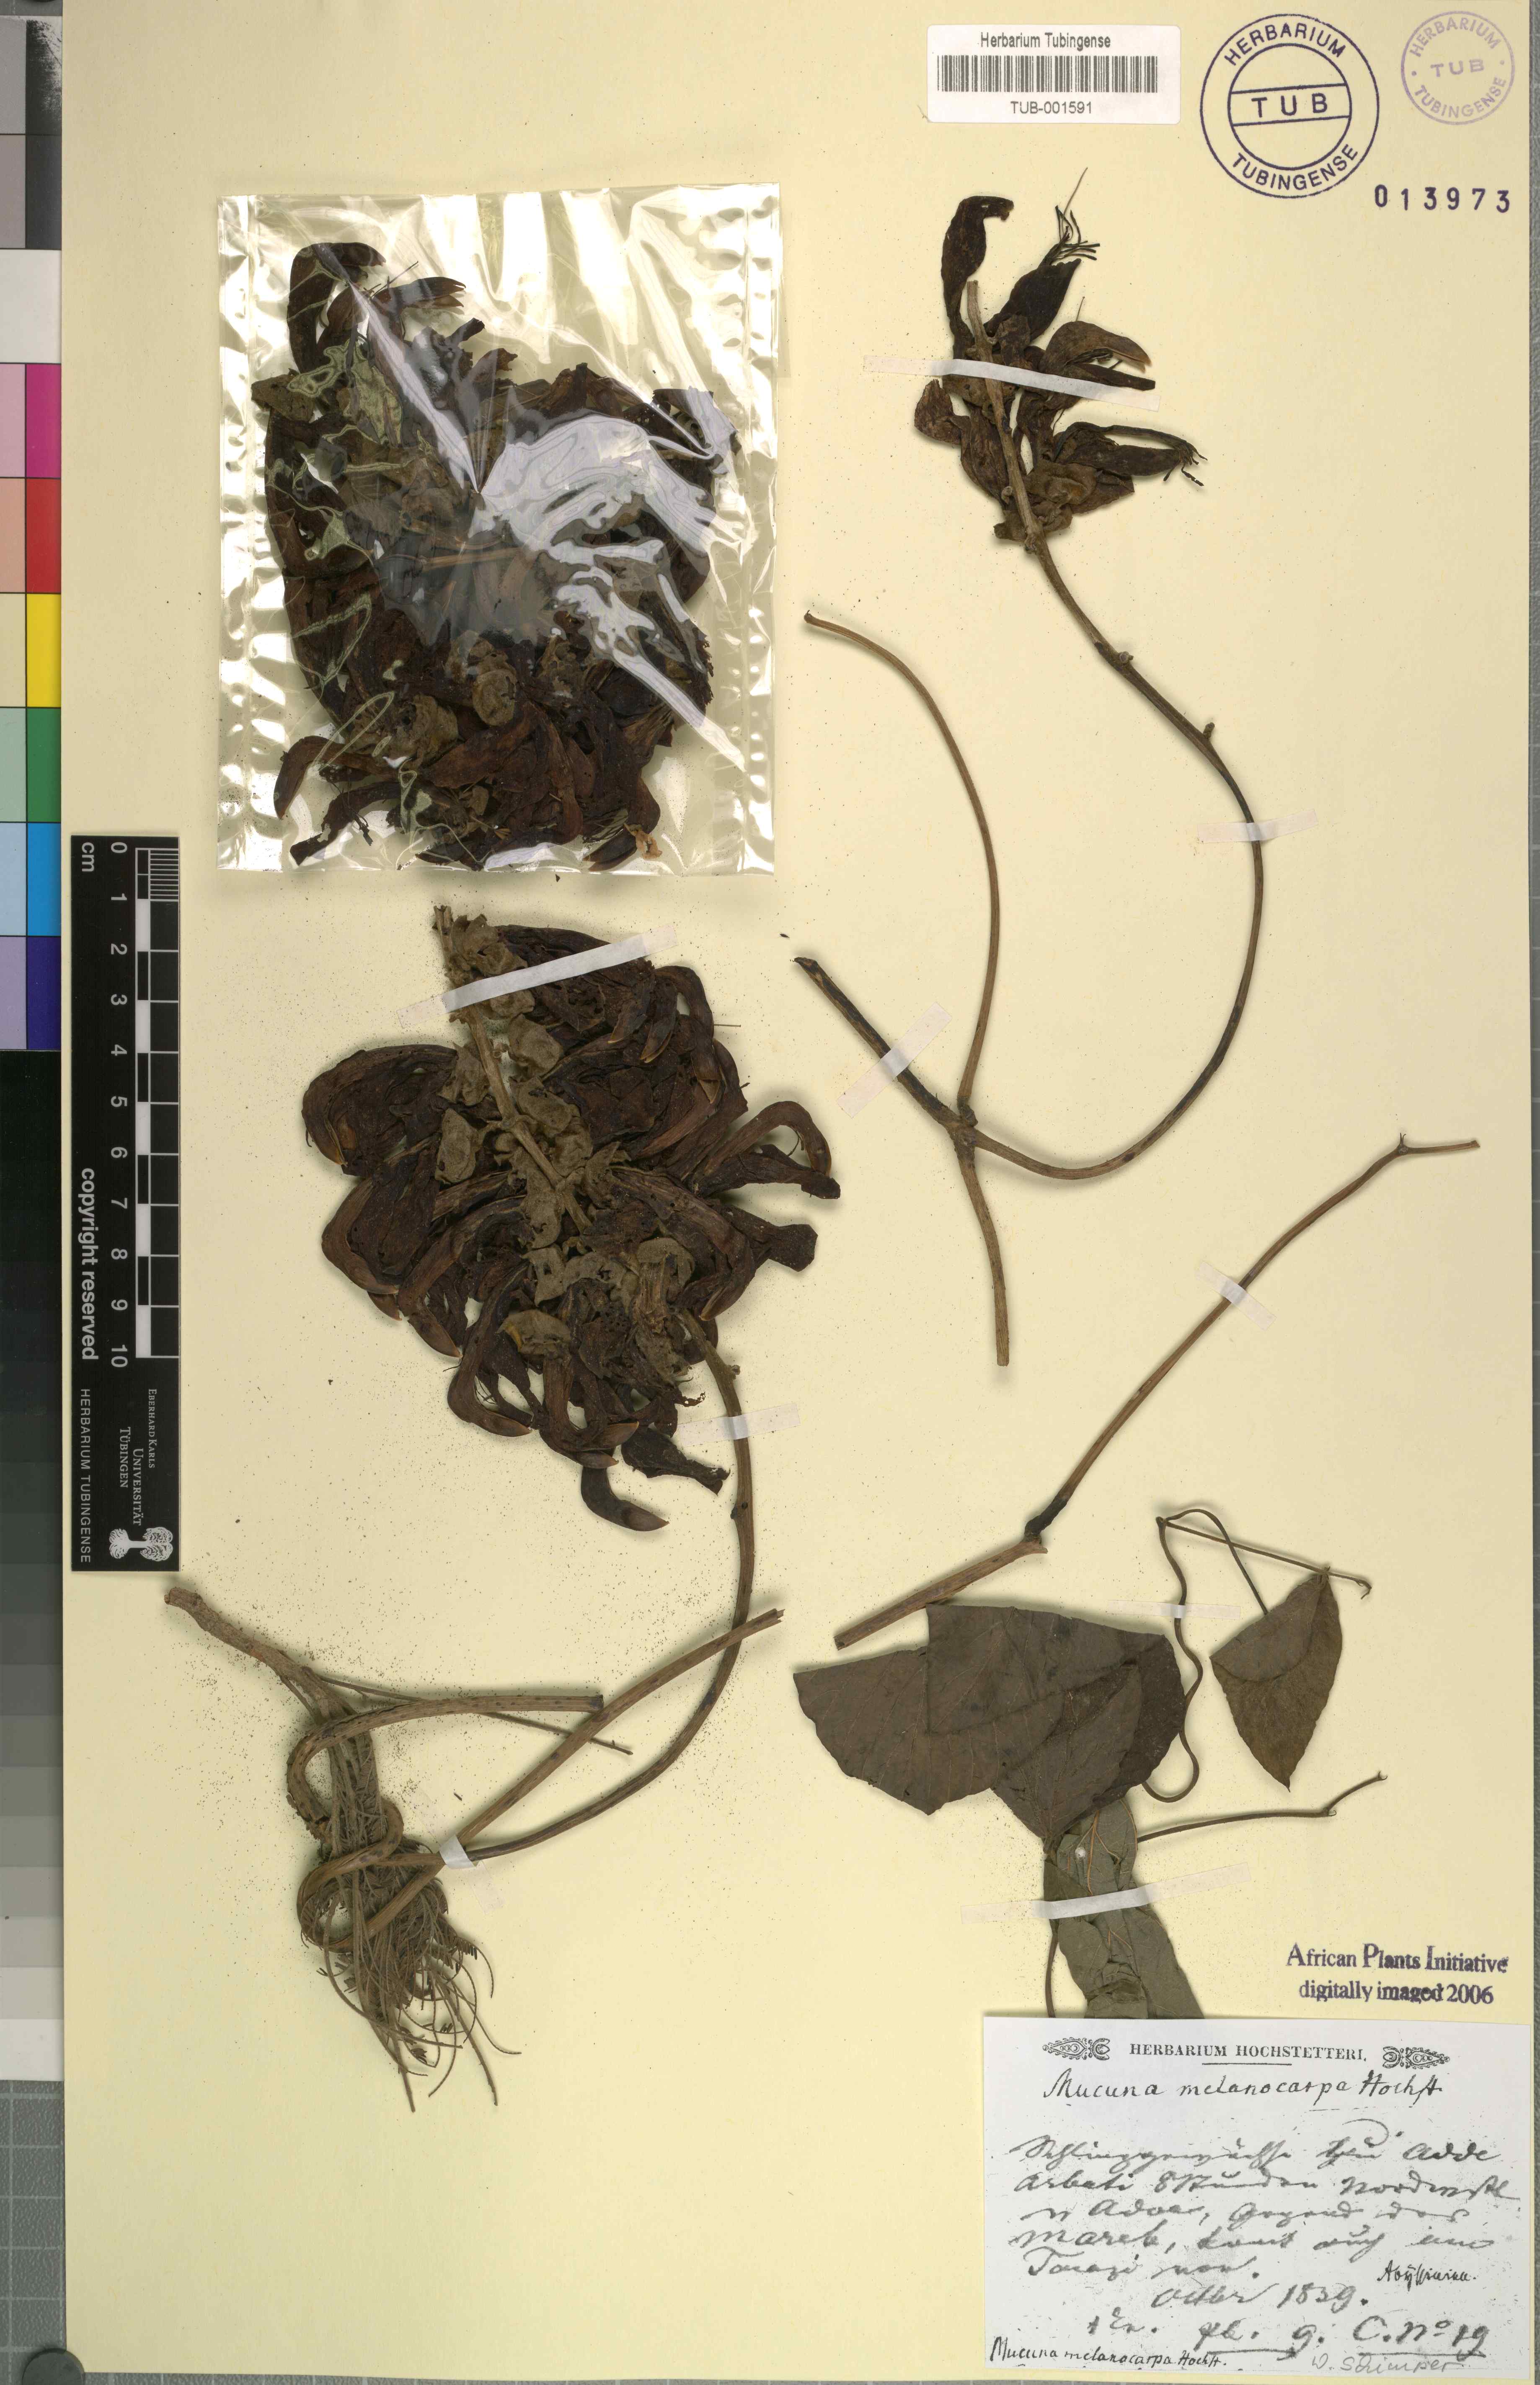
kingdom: Plantae
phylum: Tracheophyta
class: Magnoliopsida
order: Fabales
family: Fabaceae
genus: Mucuna
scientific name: Mucuna melanocarpa
